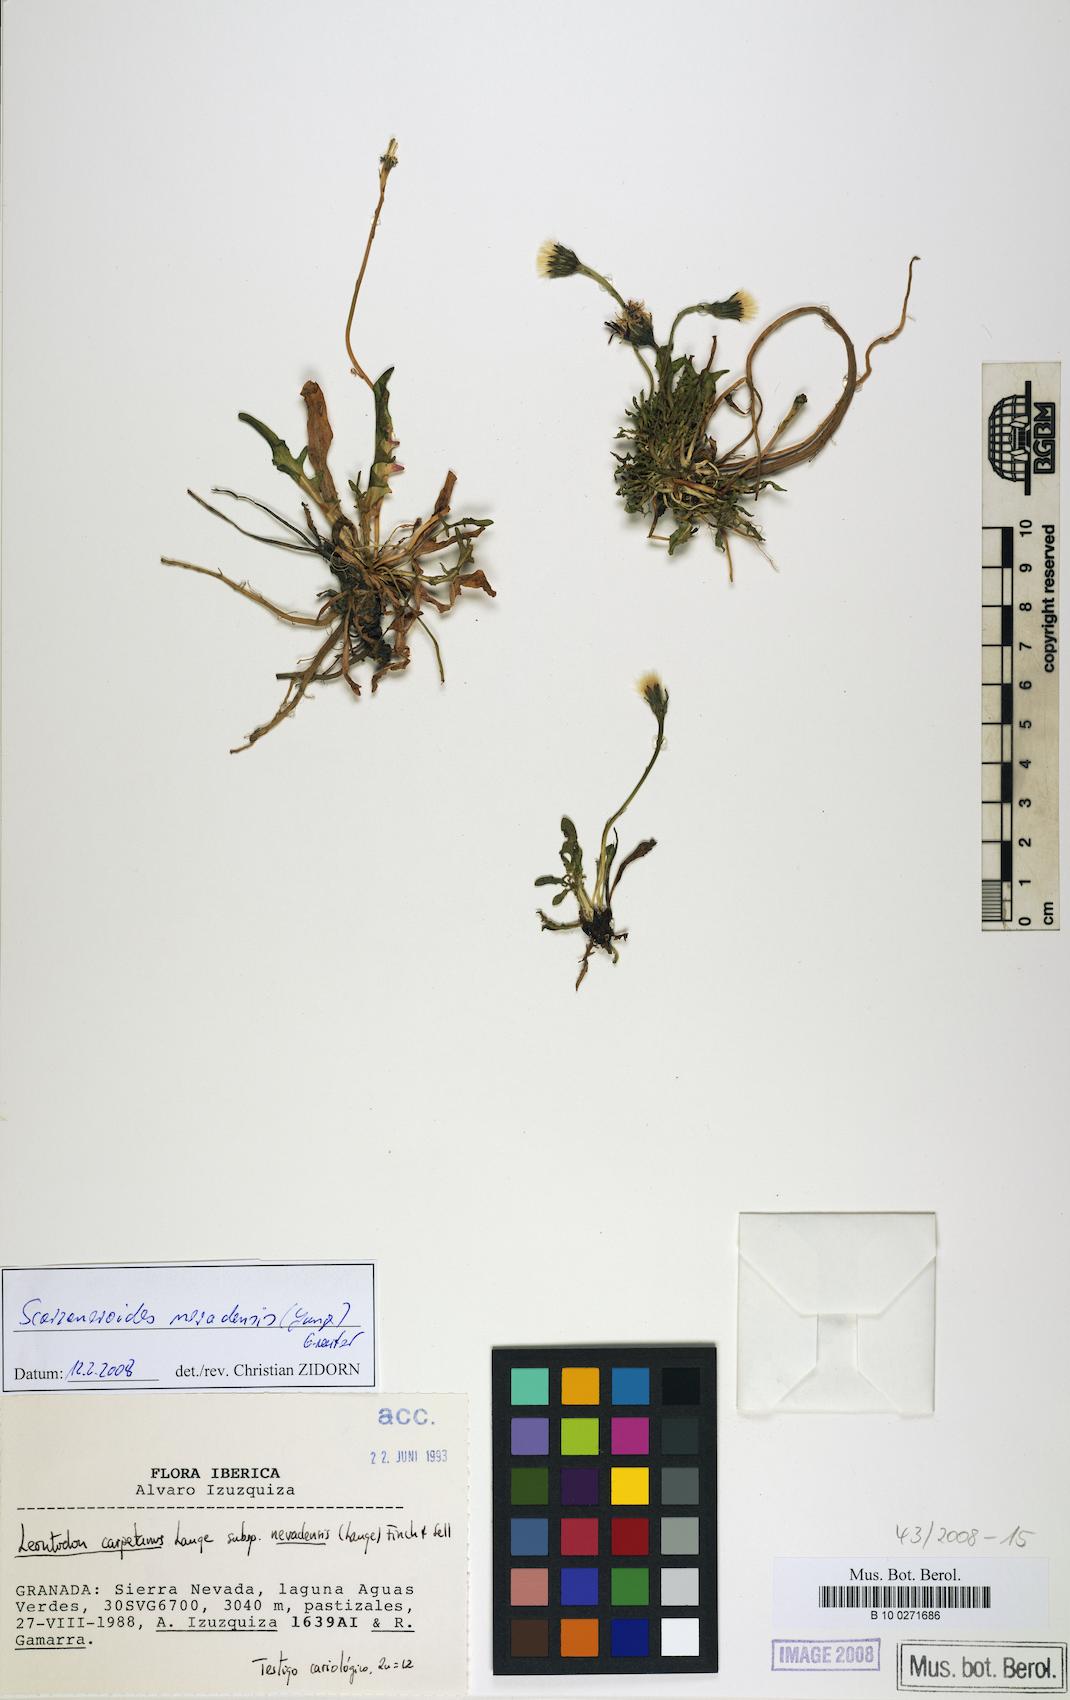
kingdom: Plantae
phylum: Tracheophyta
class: Magnoliopsida
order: Asterales
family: Asteraceae
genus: Scorzoneroides
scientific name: Scorzoneroides carpetana
